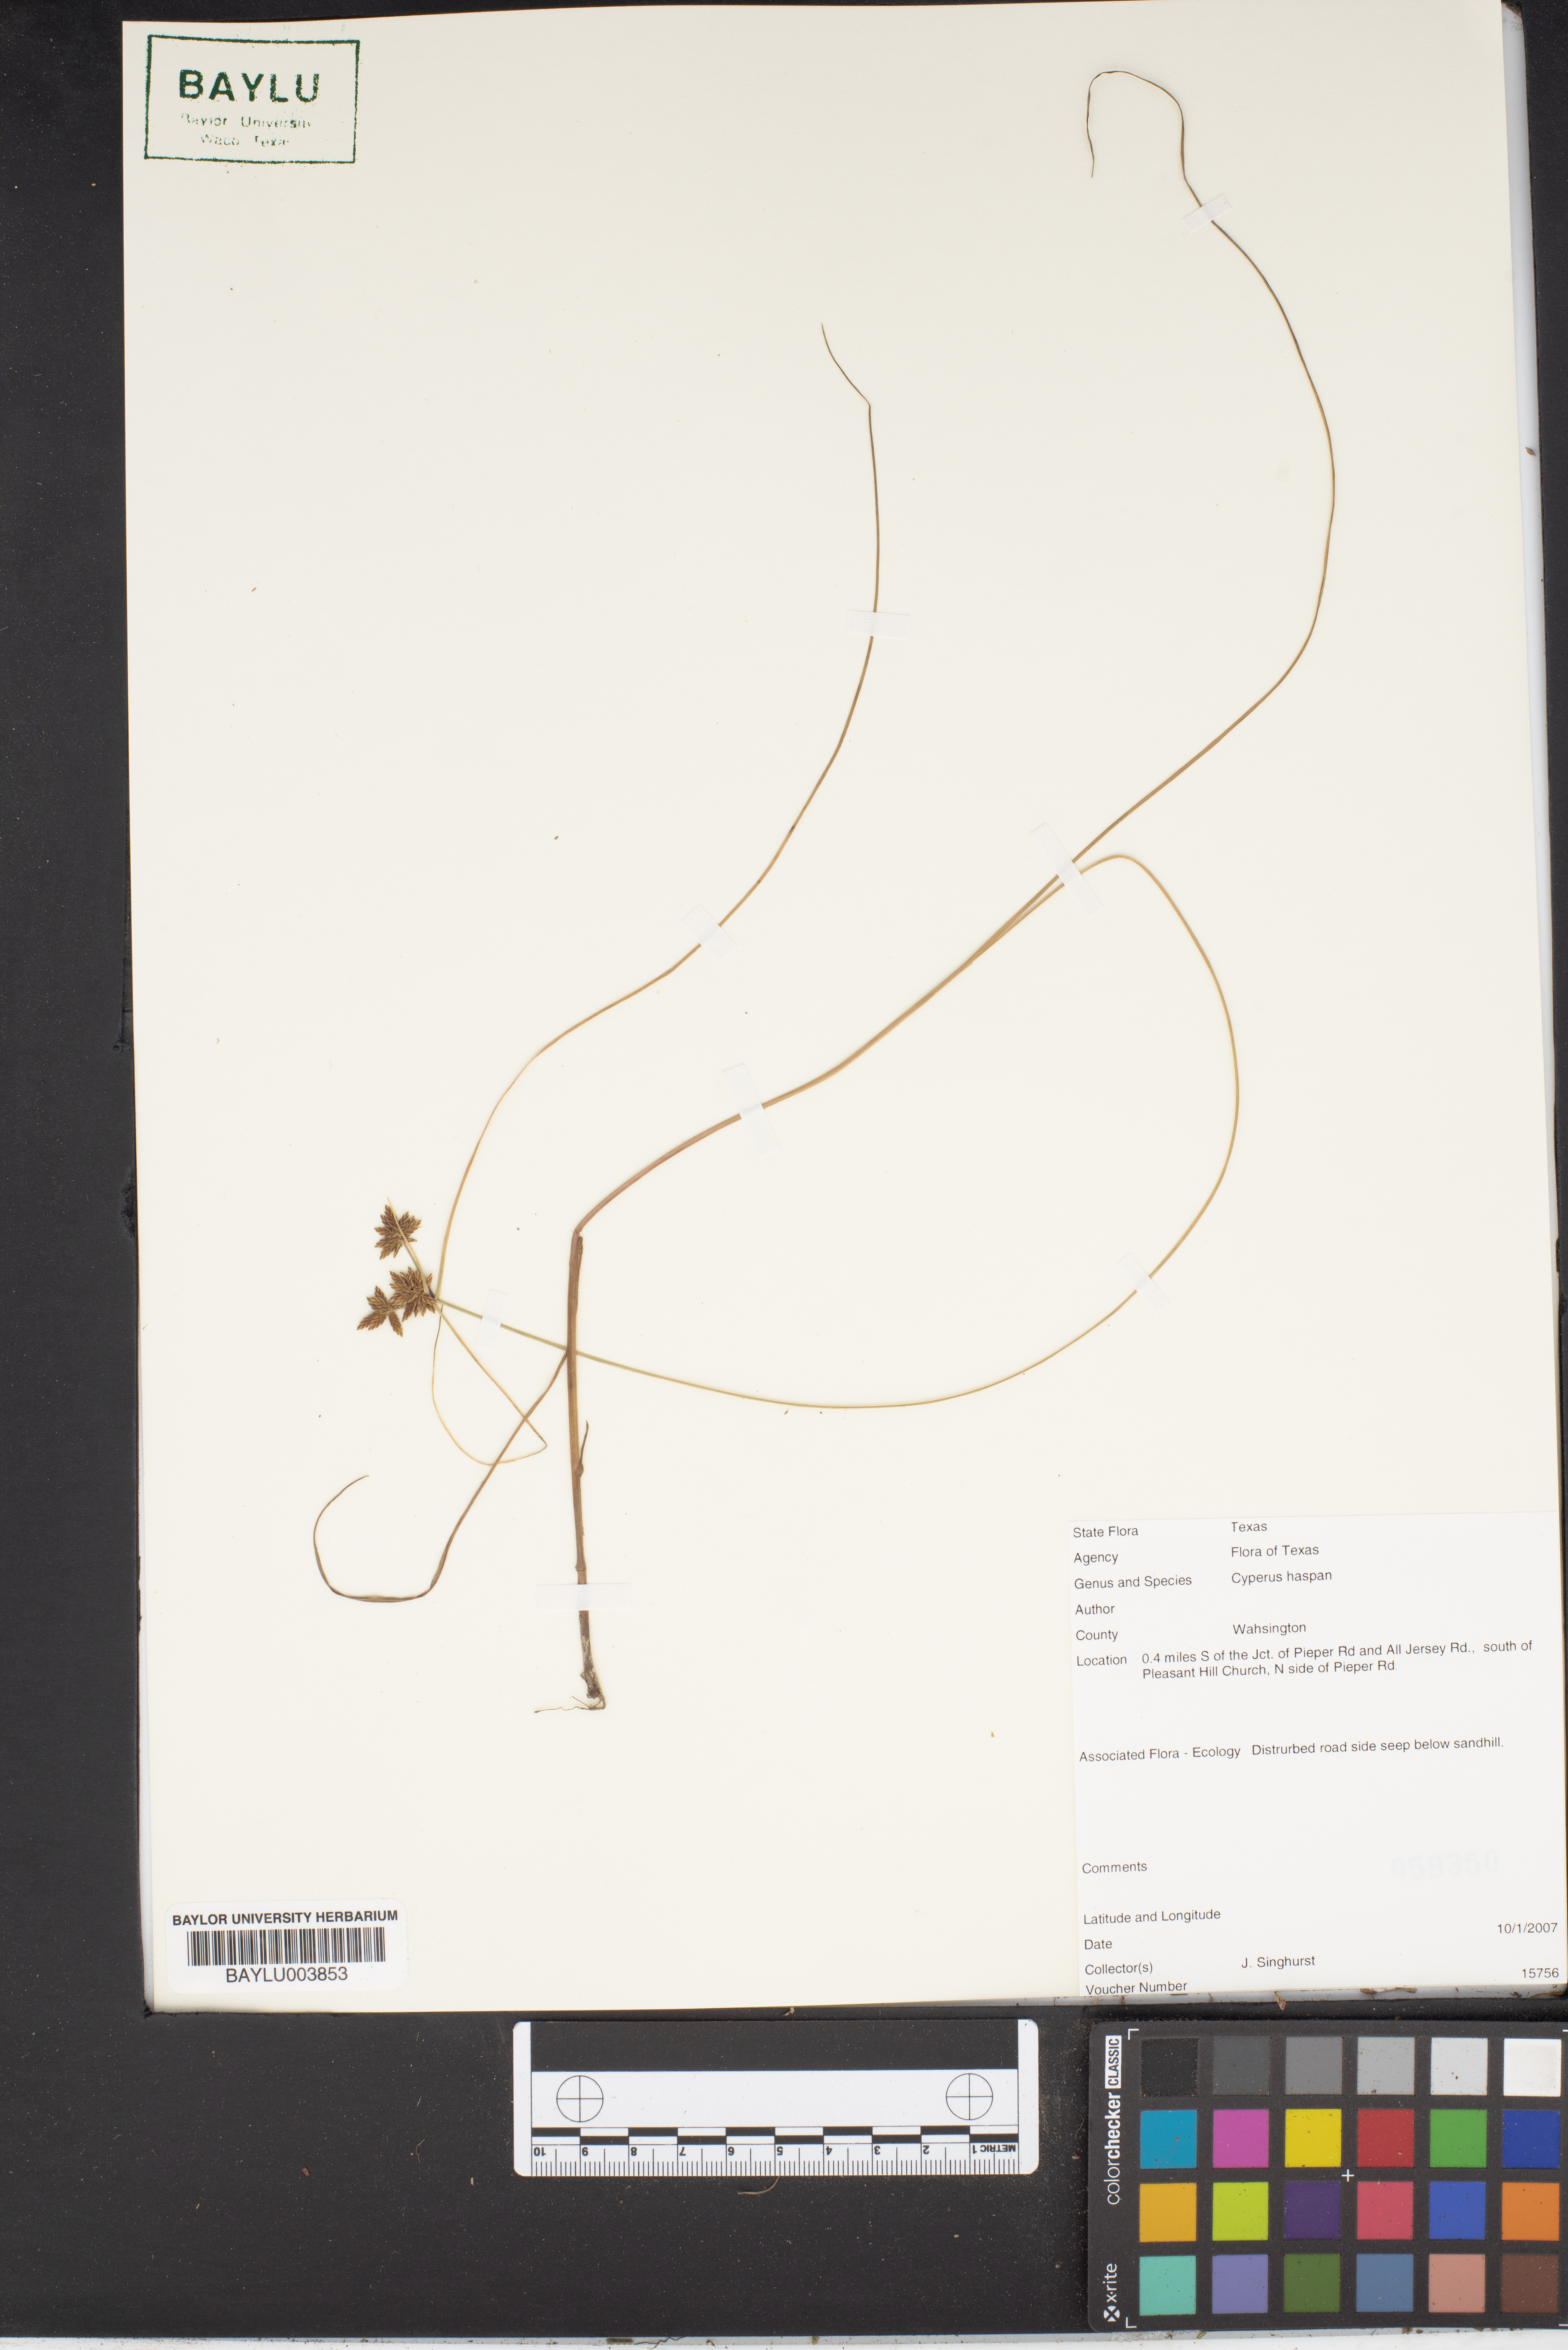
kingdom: Plantae
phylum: Tracheophyta
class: Liliopsida
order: Poales
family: Cyperaceae
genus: Cyperus
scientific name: Cyperus haspan
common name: Haspan flatsedge
